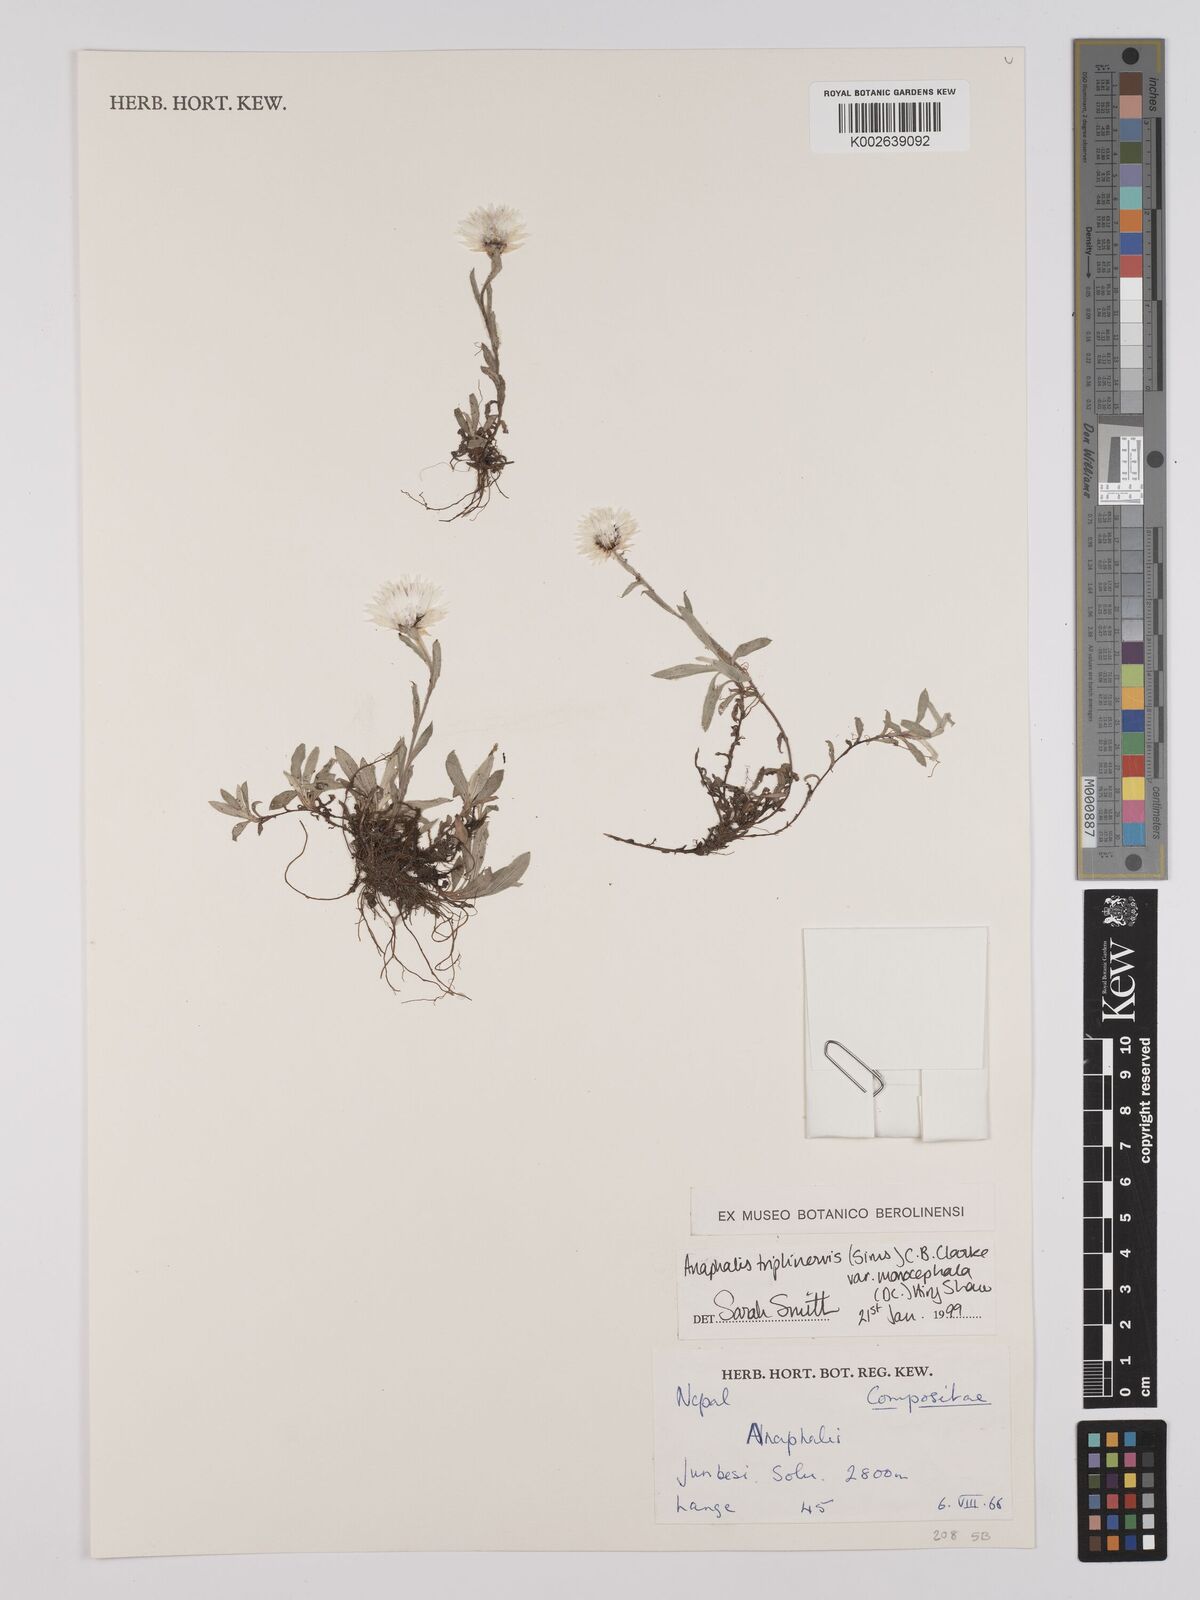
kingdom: Plantae
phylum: Tracheophyta
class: Magnoliopsida
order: Asterales
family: Asteraceae
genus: Anaphalis
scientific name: Anaphalis nepalensis
